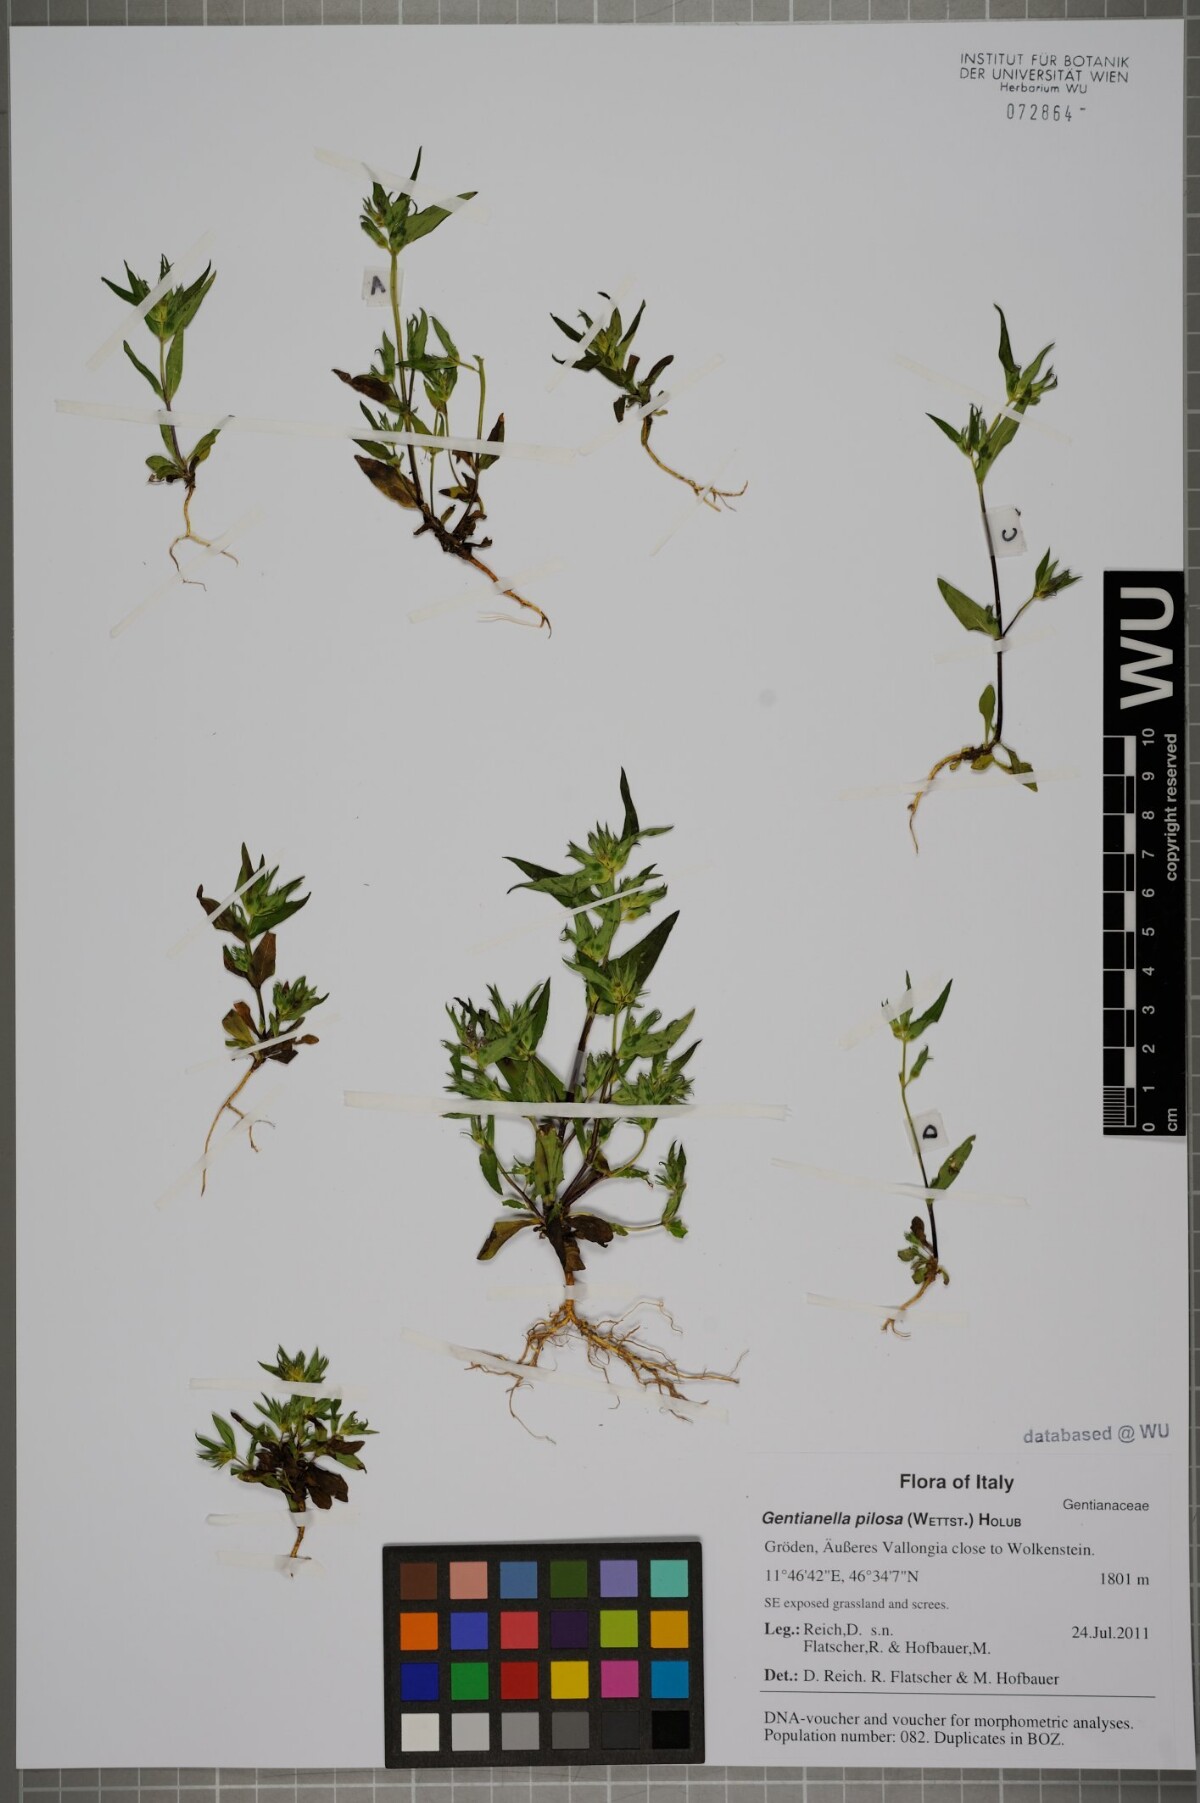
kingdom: Plantae
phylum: Tracheophyta
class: Magnoliopsida
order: Gentianales
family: Gentianaceae
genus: Gentianella
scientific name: Gentianella pilosa
